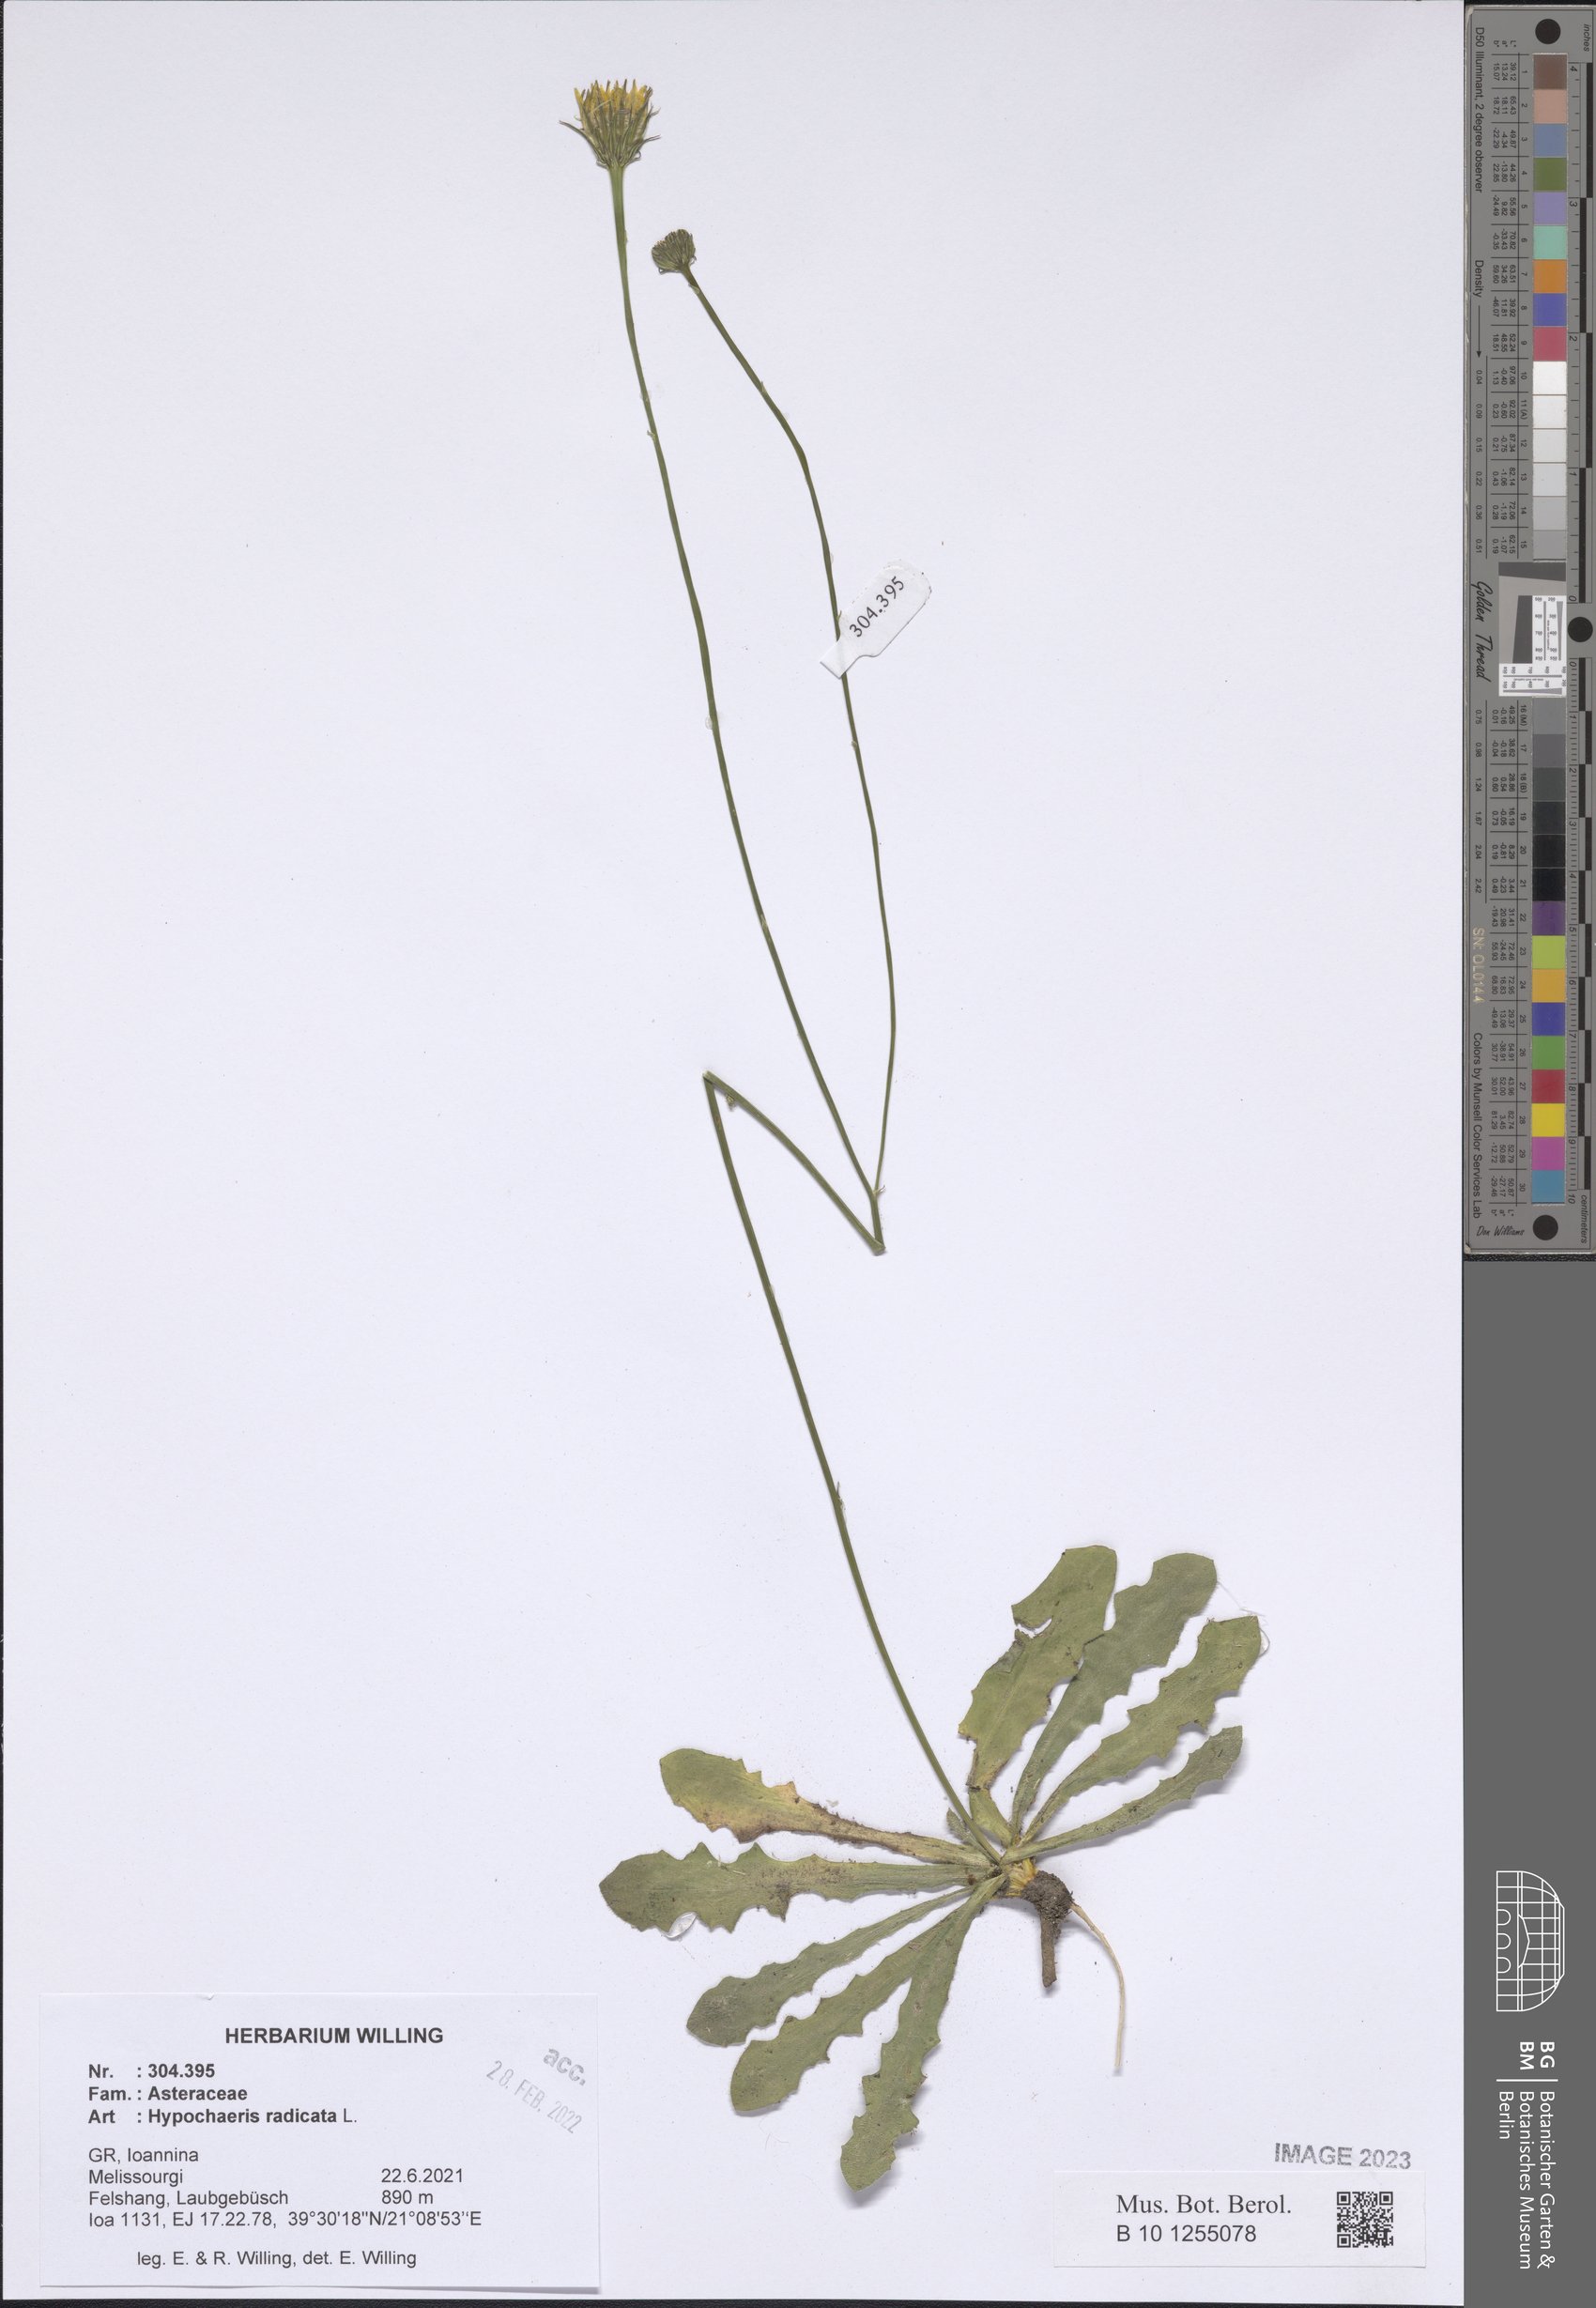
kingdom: Plantae
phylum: Tracheophyta
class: Magnoliopsida
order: Asterales
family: Asteraceae
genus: Hypochaeris
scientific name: Hypochaeris radicata
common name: Flatweed
